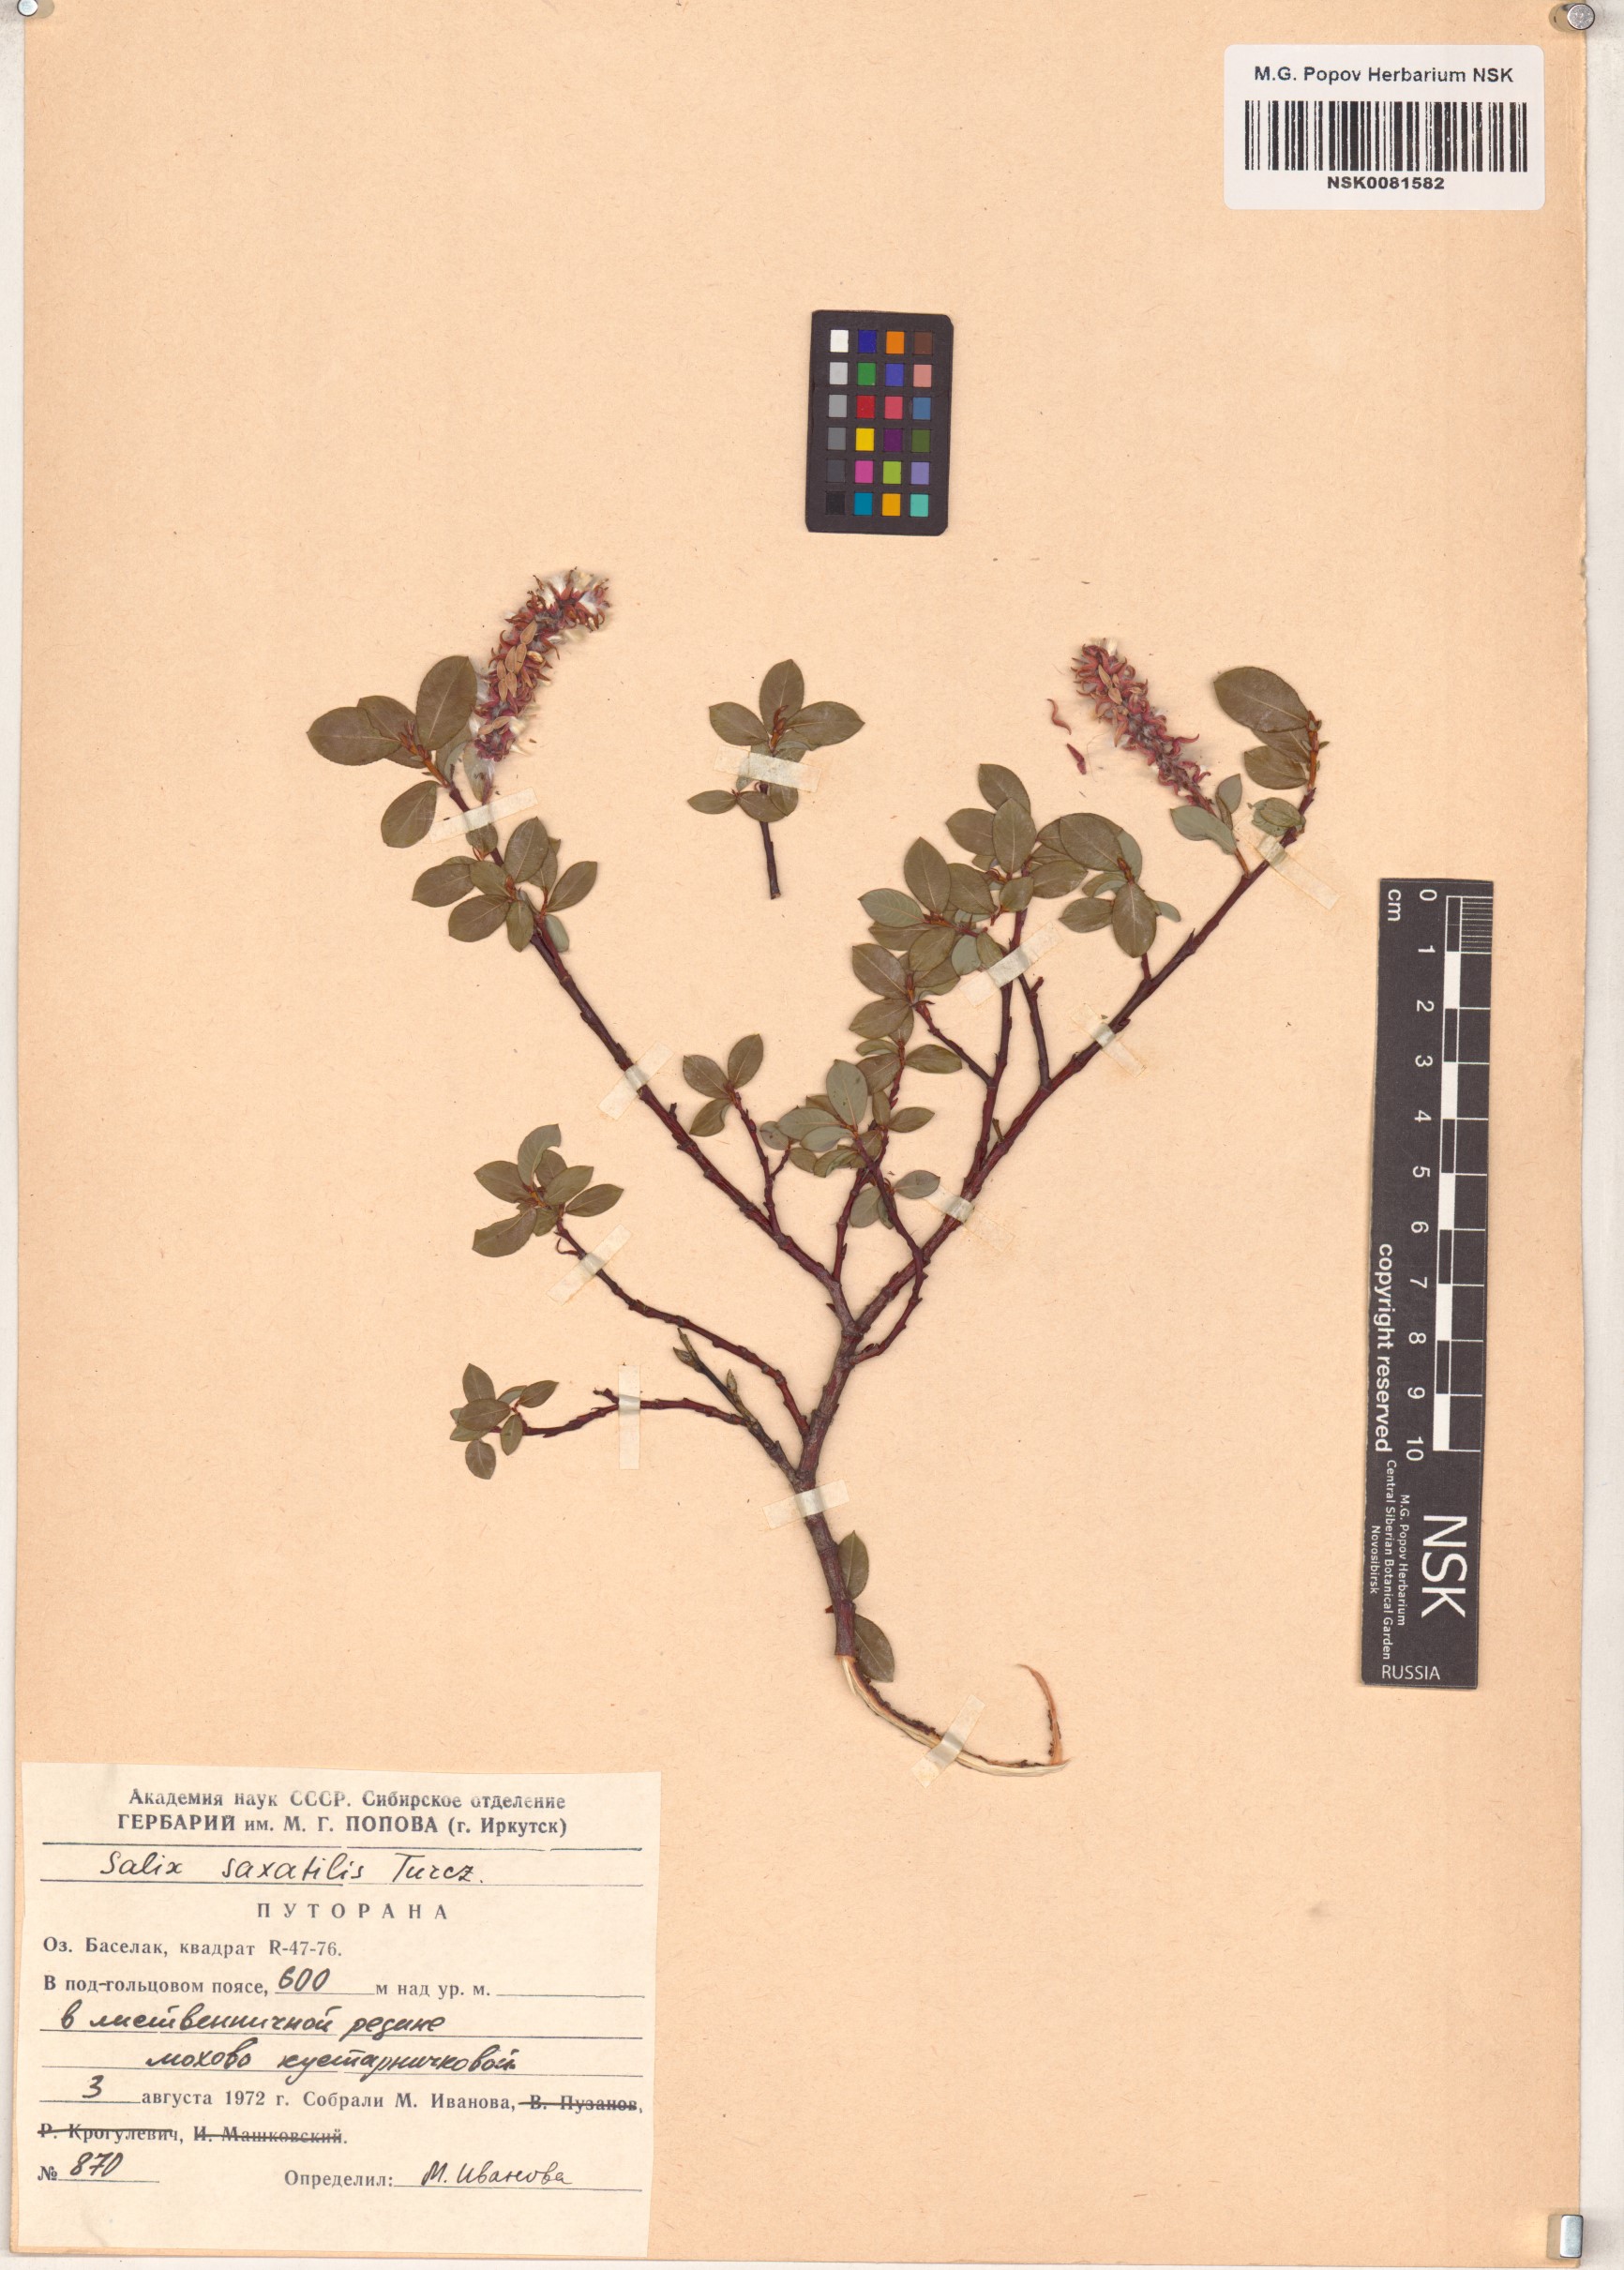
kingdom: Plantae
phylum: Tracheophyta
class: Magnoliopsida
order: Malpighiales
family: Salicaceae
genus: Salix
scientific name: Salix saxatilis
